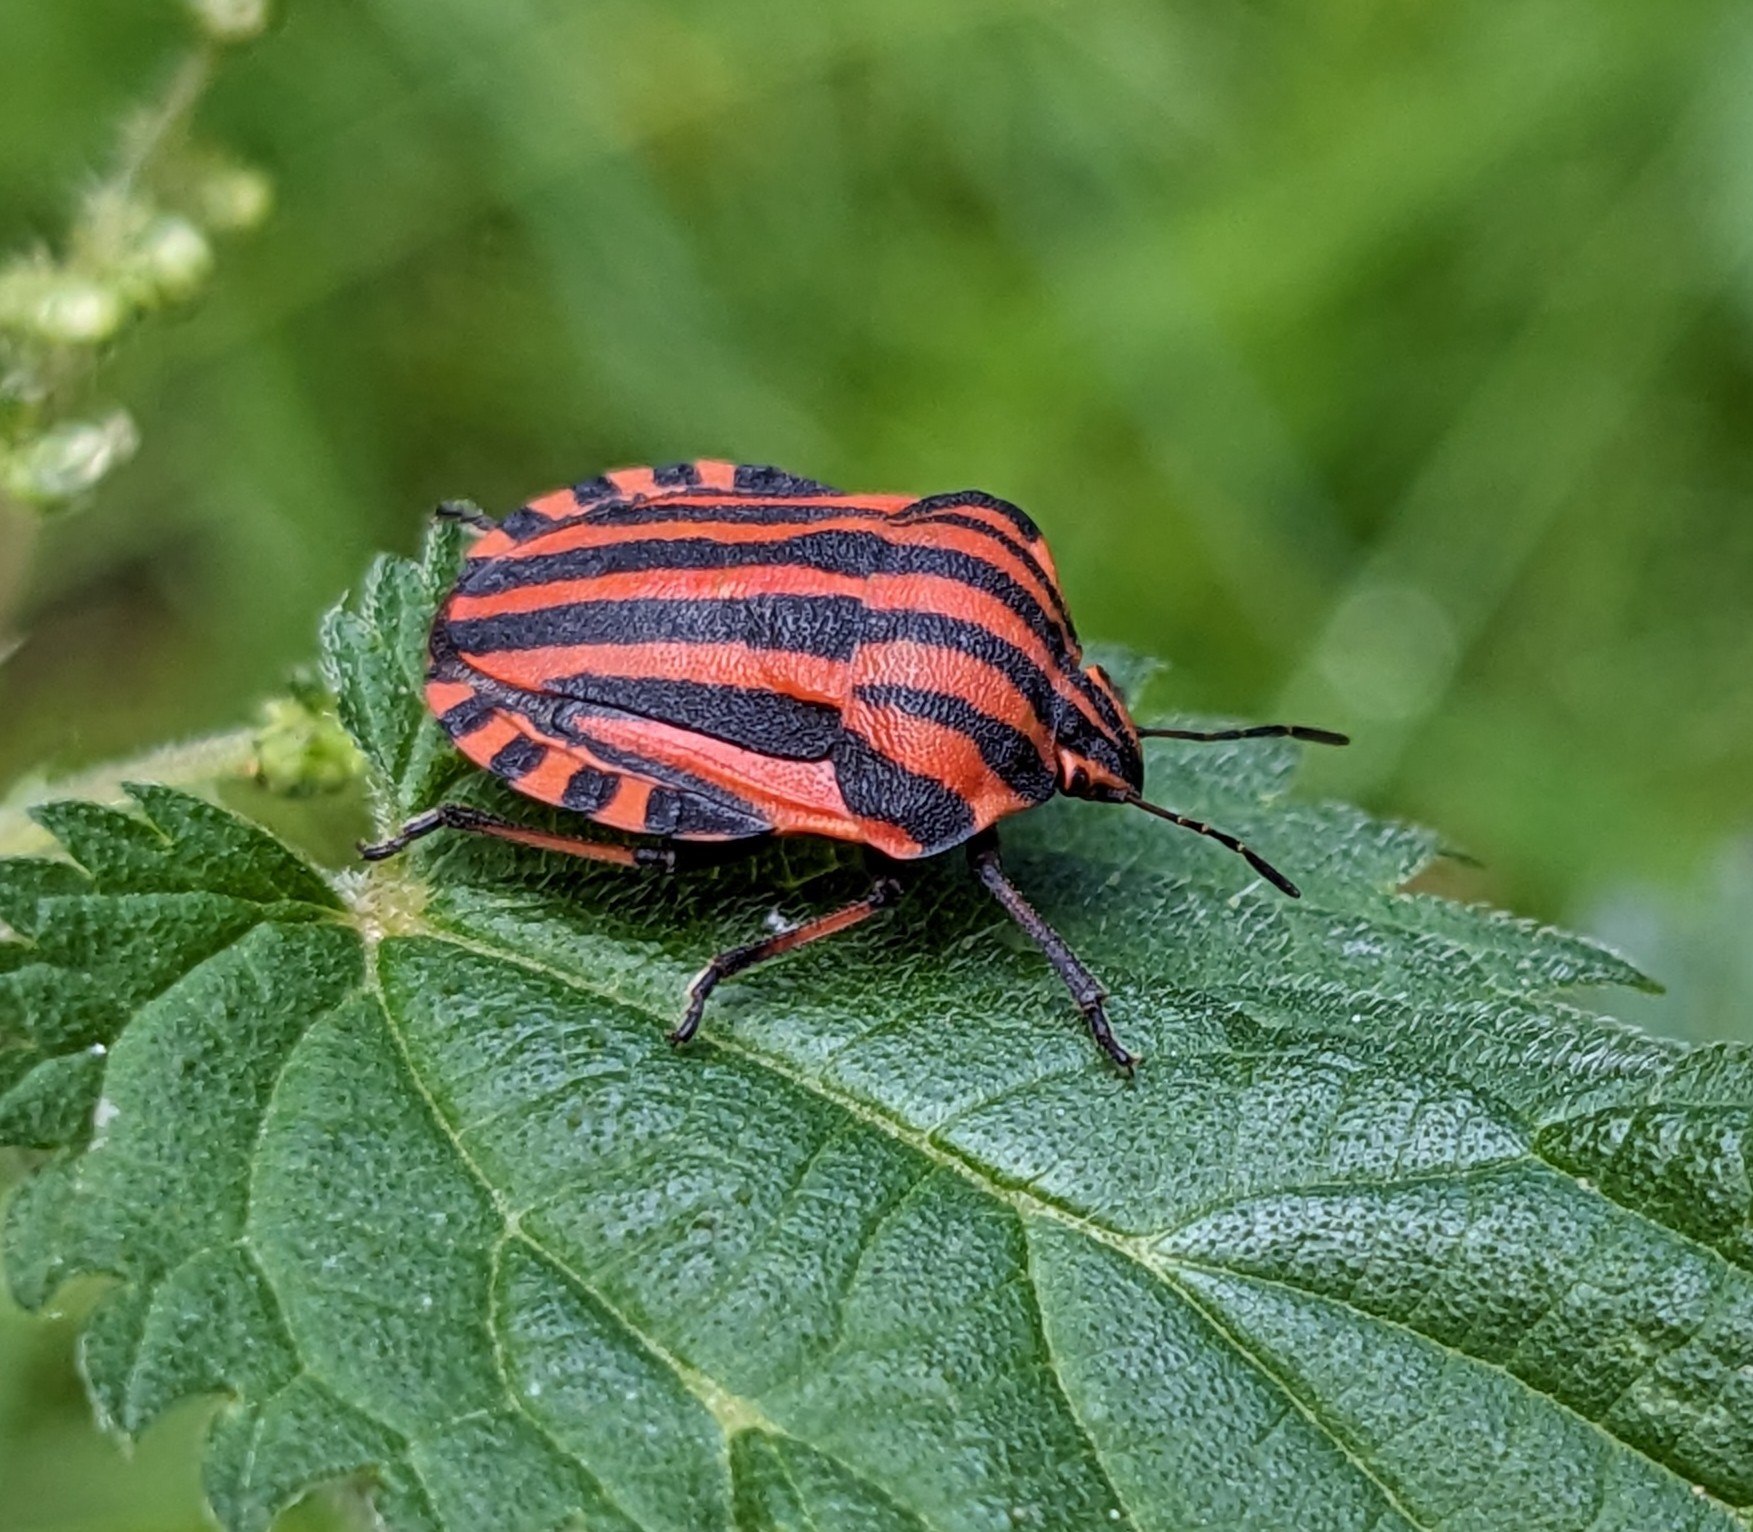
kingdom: Animalia
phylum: Arthropoda
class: Insecta
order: Hemiptera
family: Pentatomidae
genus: Graphosoma
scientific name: Graphosoma italicum
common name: Stribetæge
